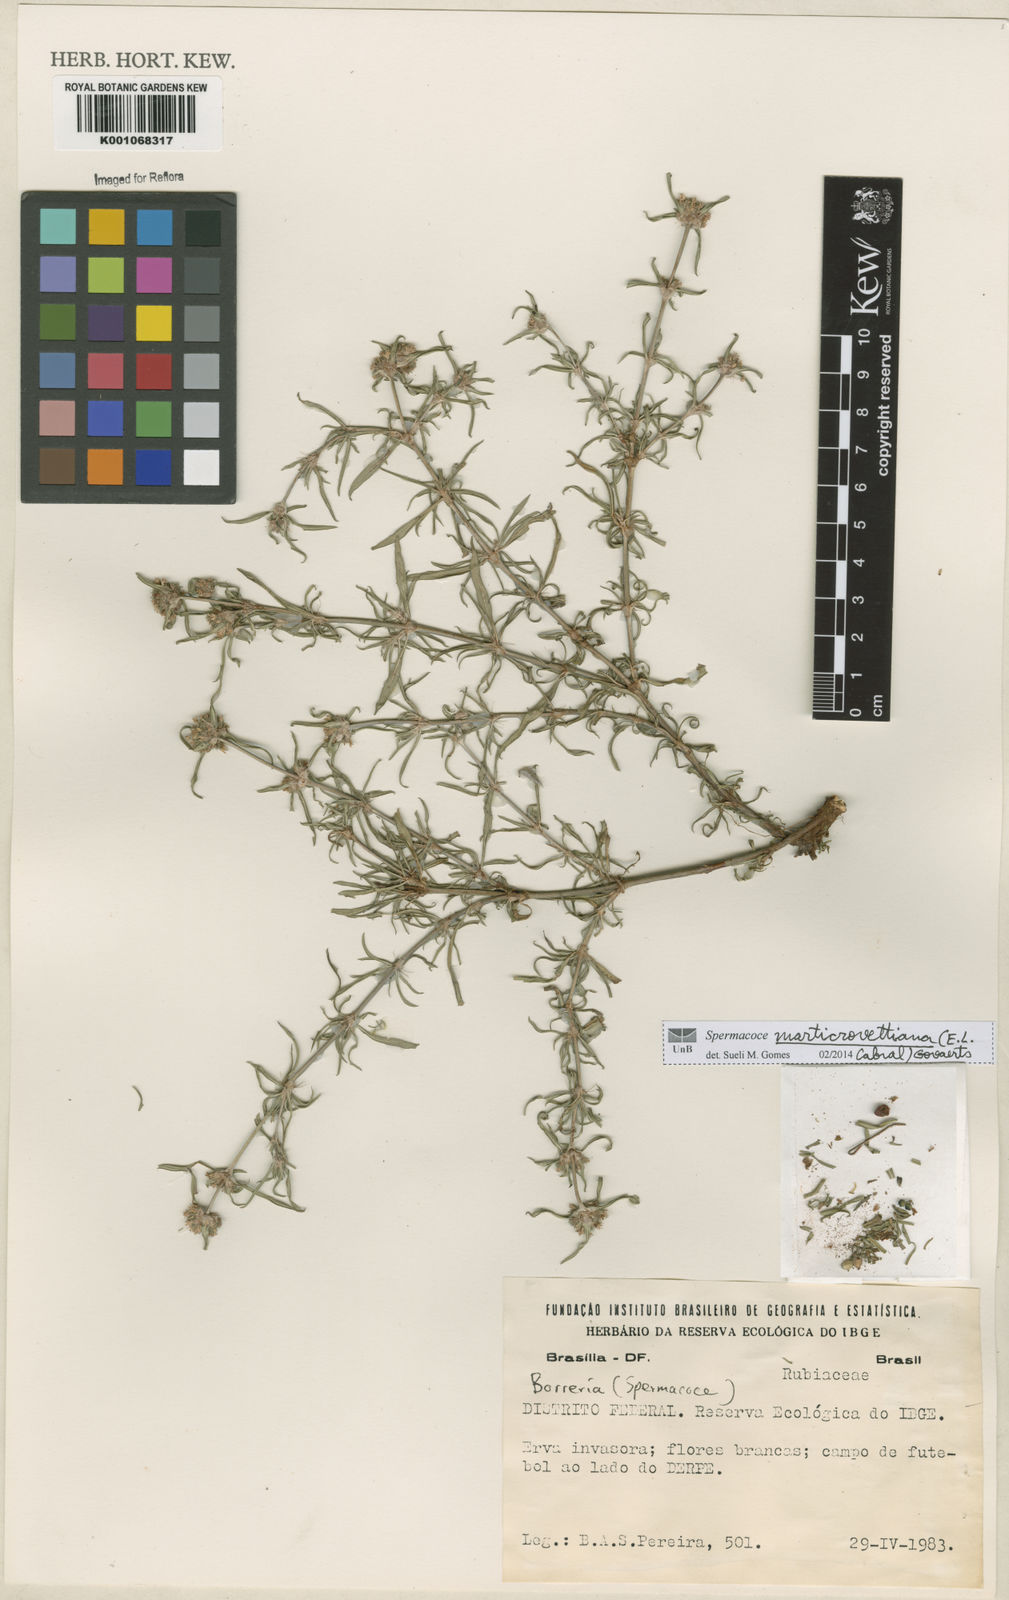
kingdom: Plantae
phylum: Tracheophyta
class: Magnoliopsida
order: Gentianales
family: Rubiaceae
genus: Spermacoce
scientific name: Spermacoce marticrovettiana
